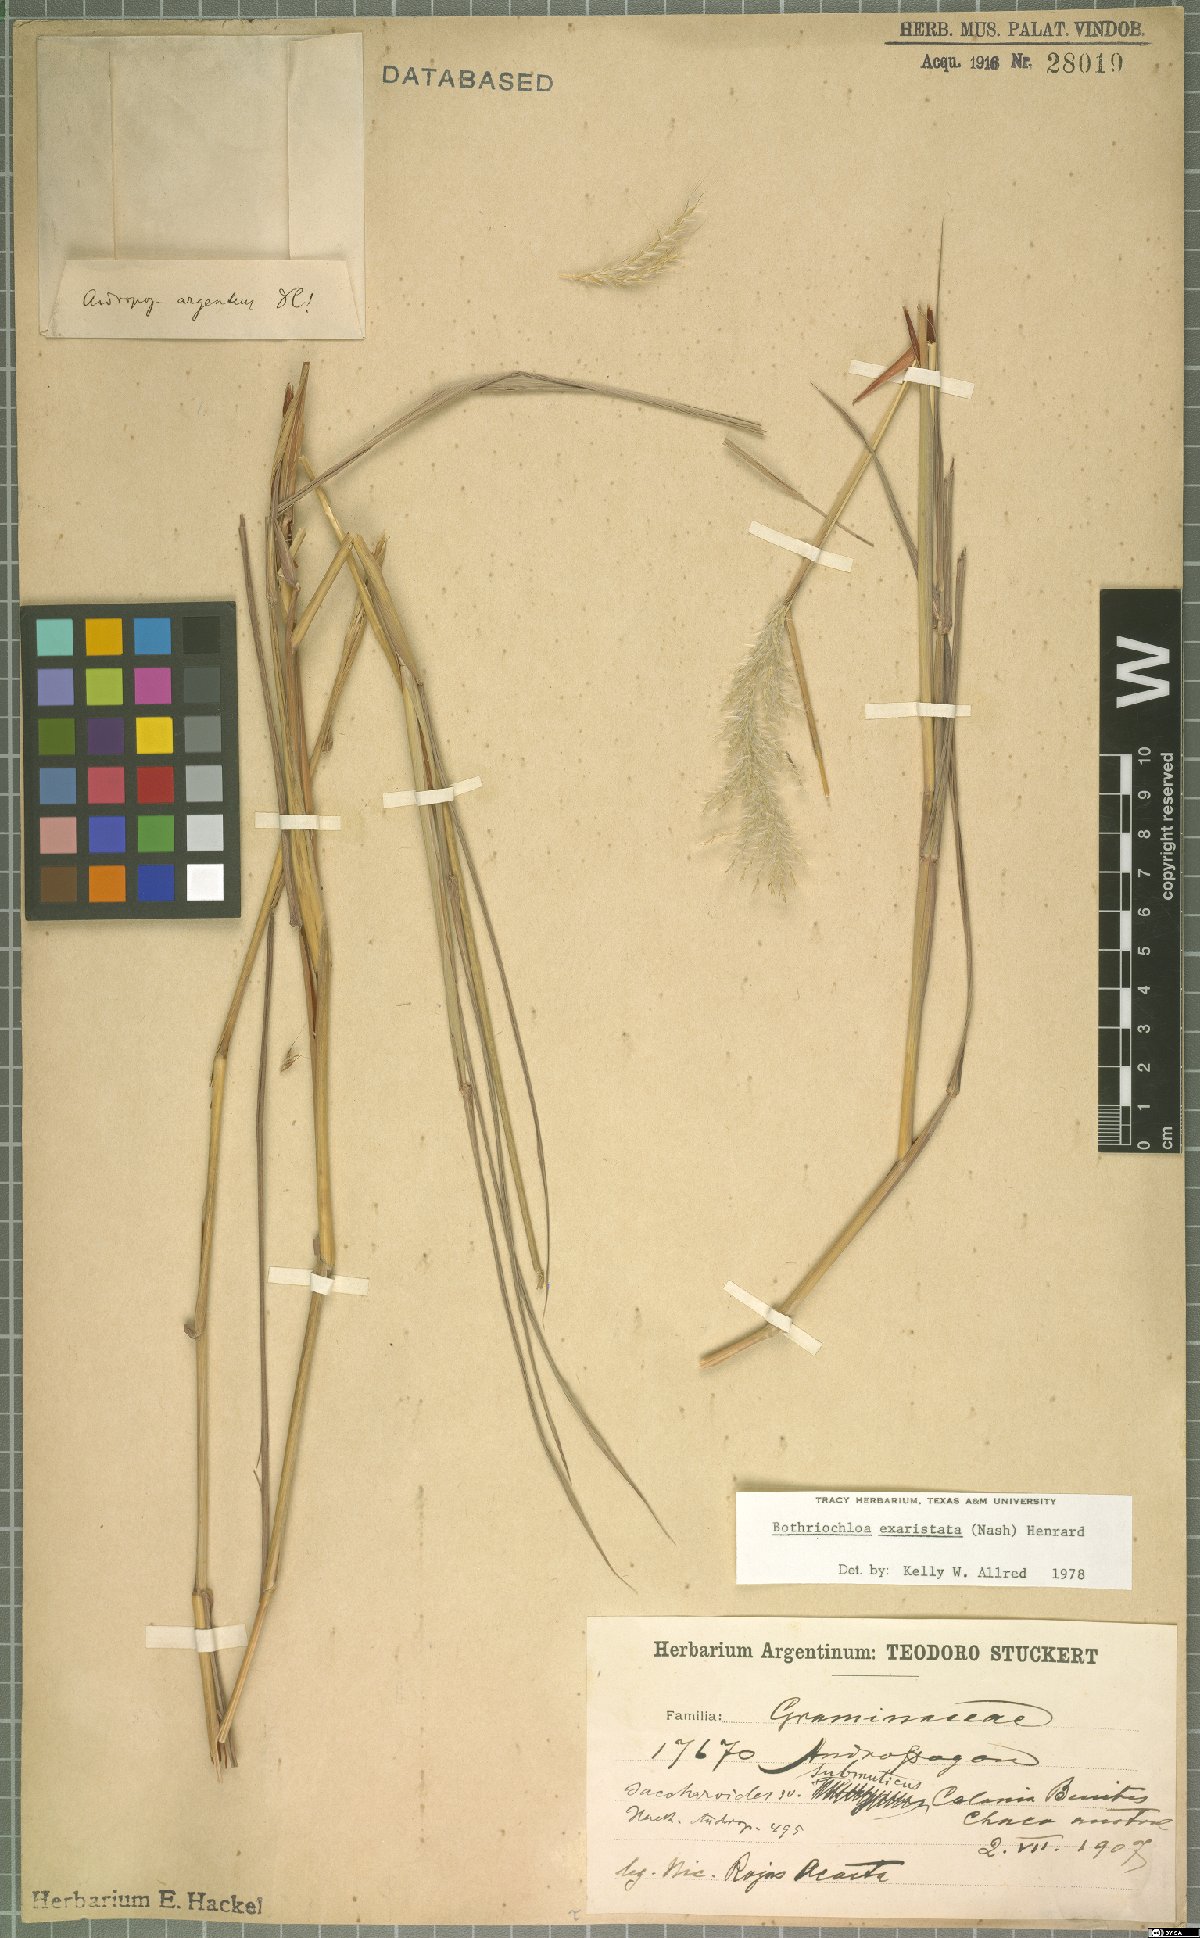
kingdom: Plantae
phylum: Tracheophyta
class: Liliopsida
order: Poales
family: Poaceae
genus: Bothriochloa
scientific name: Bothriochloa exaristata
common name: Awnless bluestem
